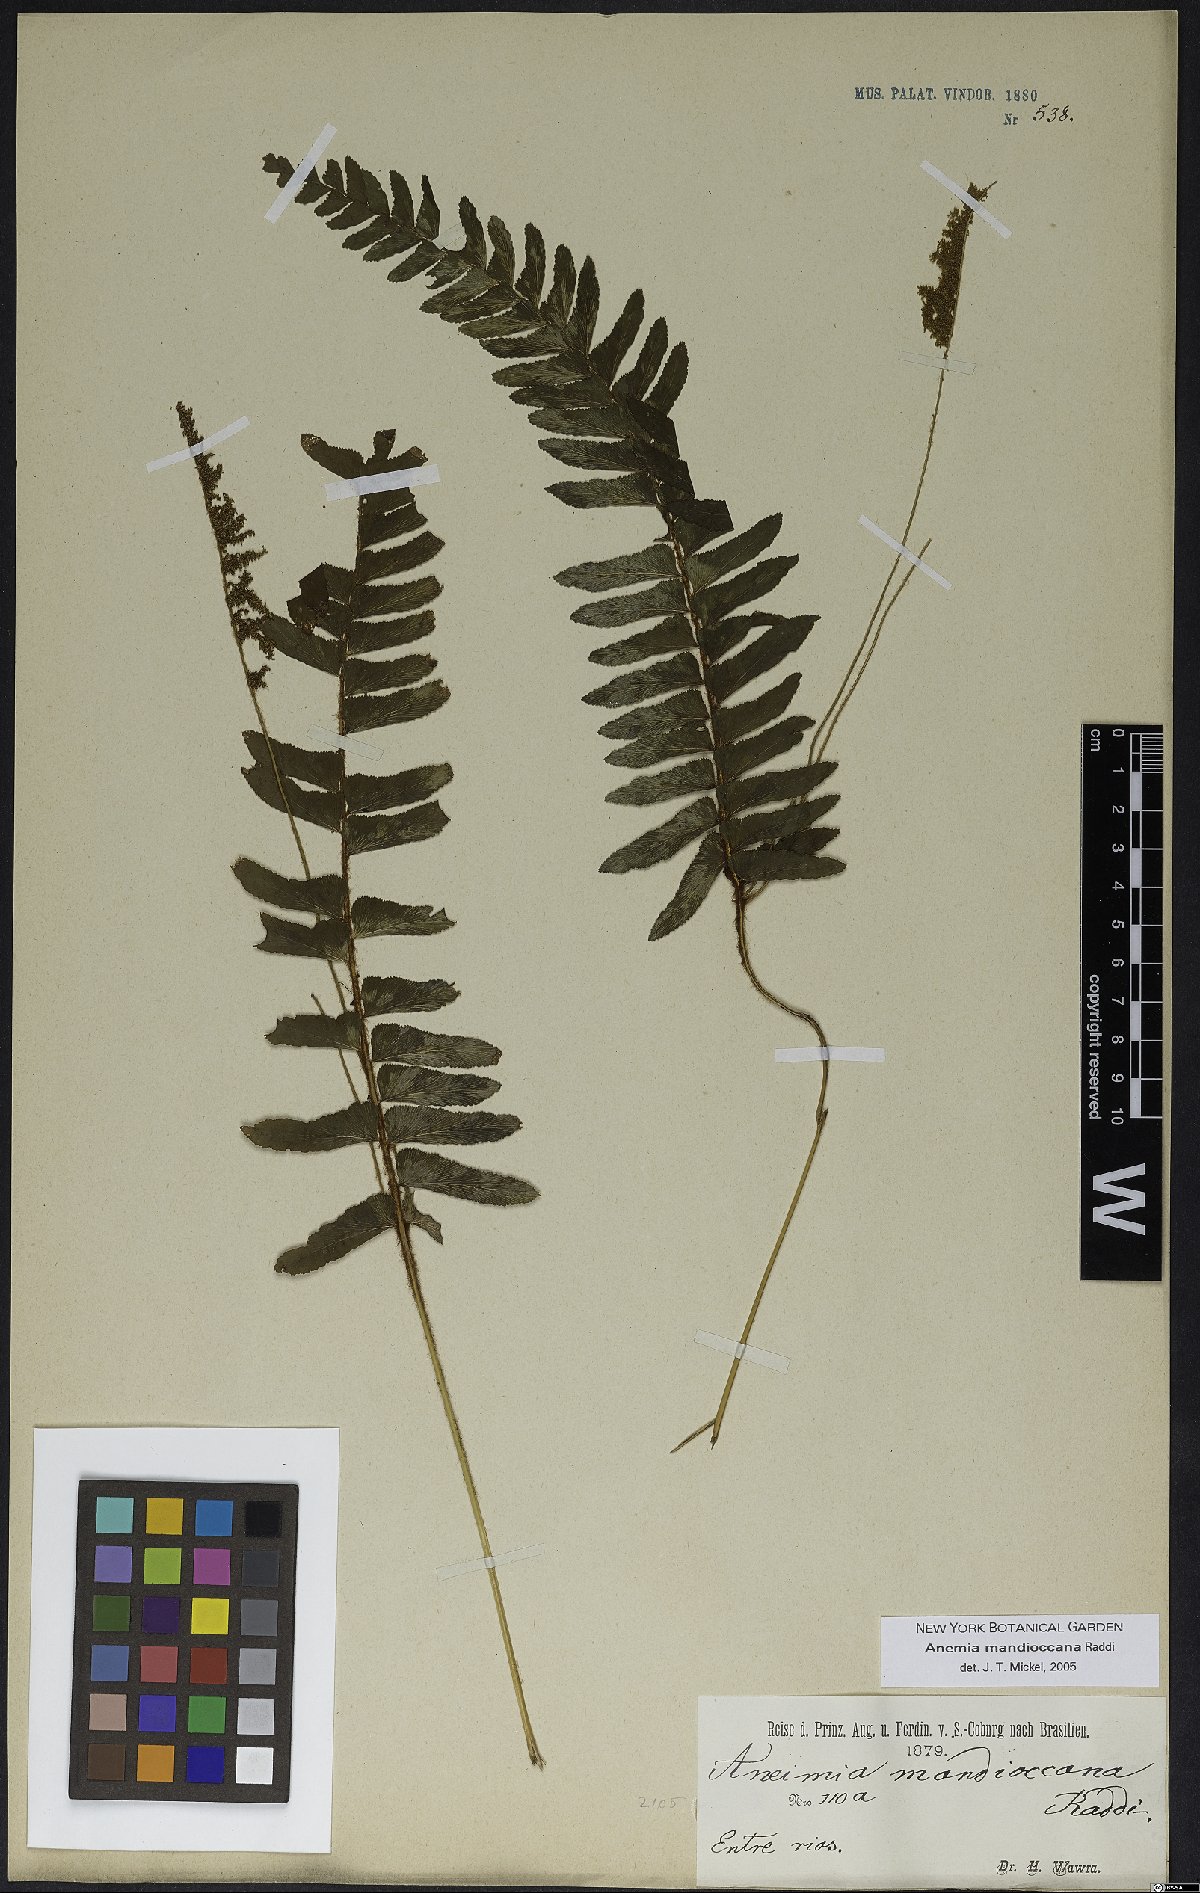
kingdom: Plantae
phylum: Tracheophyta
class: Polypodiopsida
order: Schizaeales
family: Anemiaceae
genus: Anemia
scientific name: Anemia mandiocana
